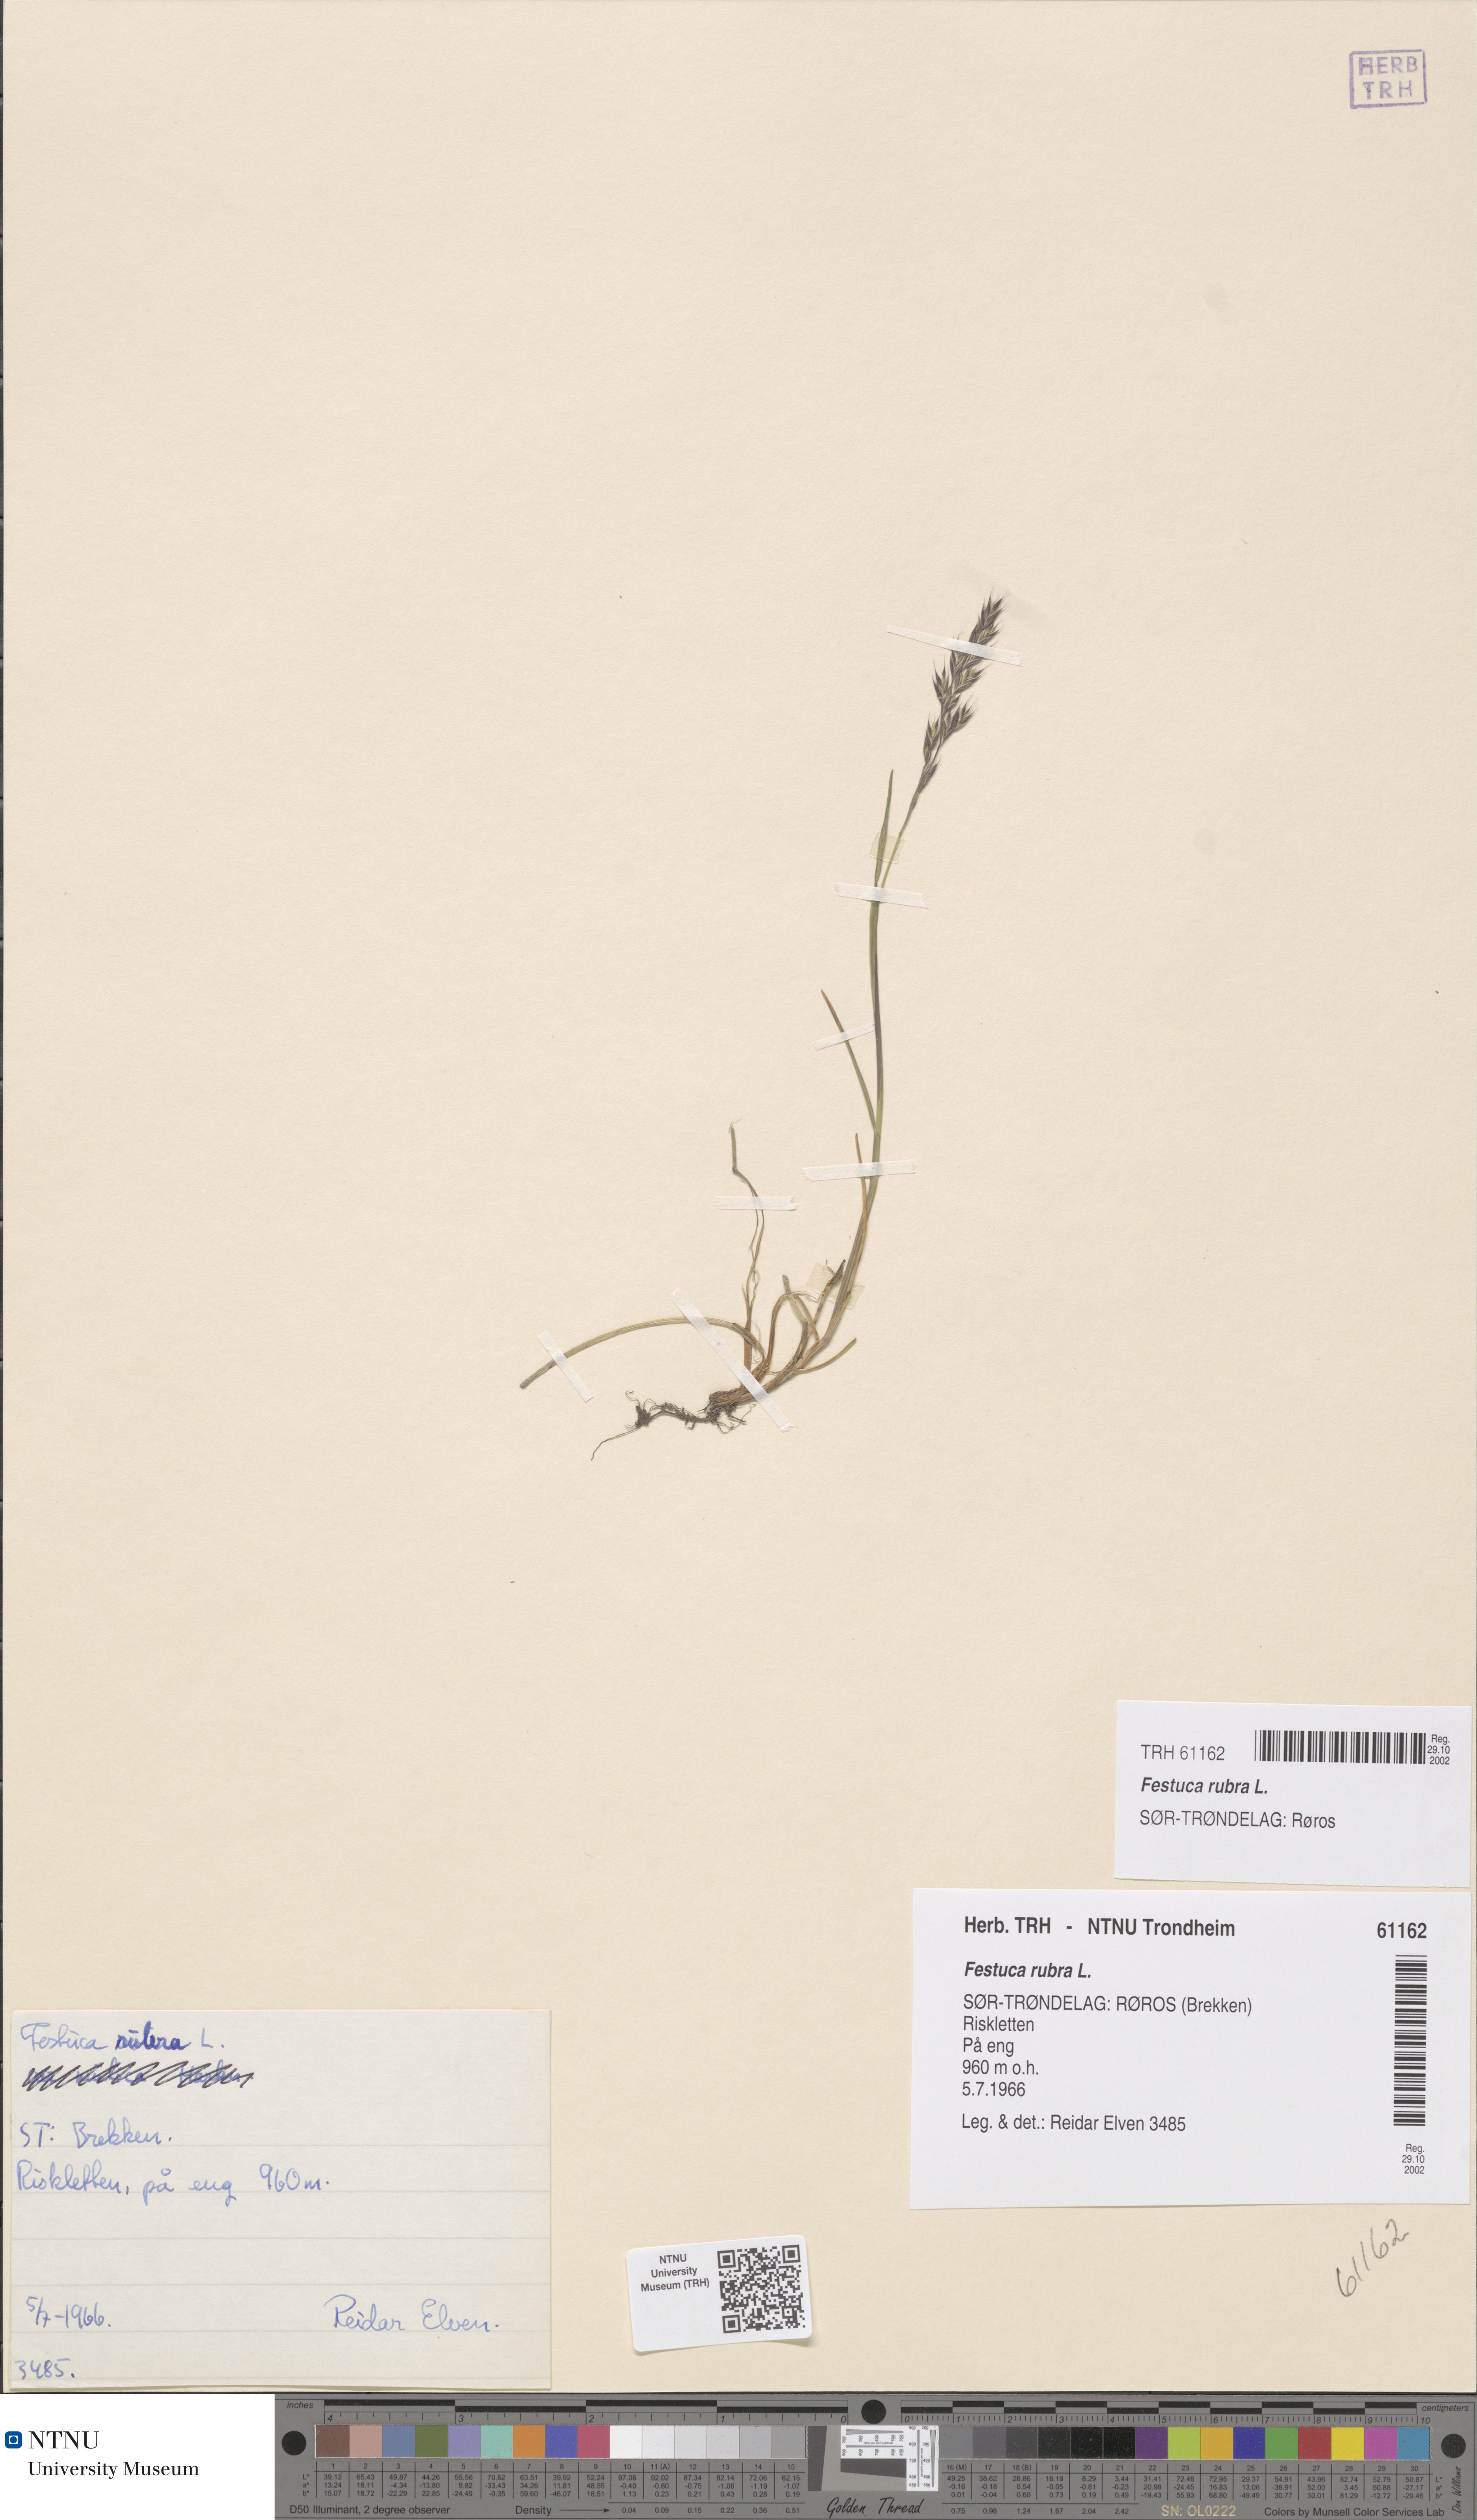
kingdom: Plantae
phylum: Tracheophyta
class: Liliopsida
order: Poales
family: Poaceae
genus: Festuca
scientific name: Festuca rubra
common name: Red fescue
